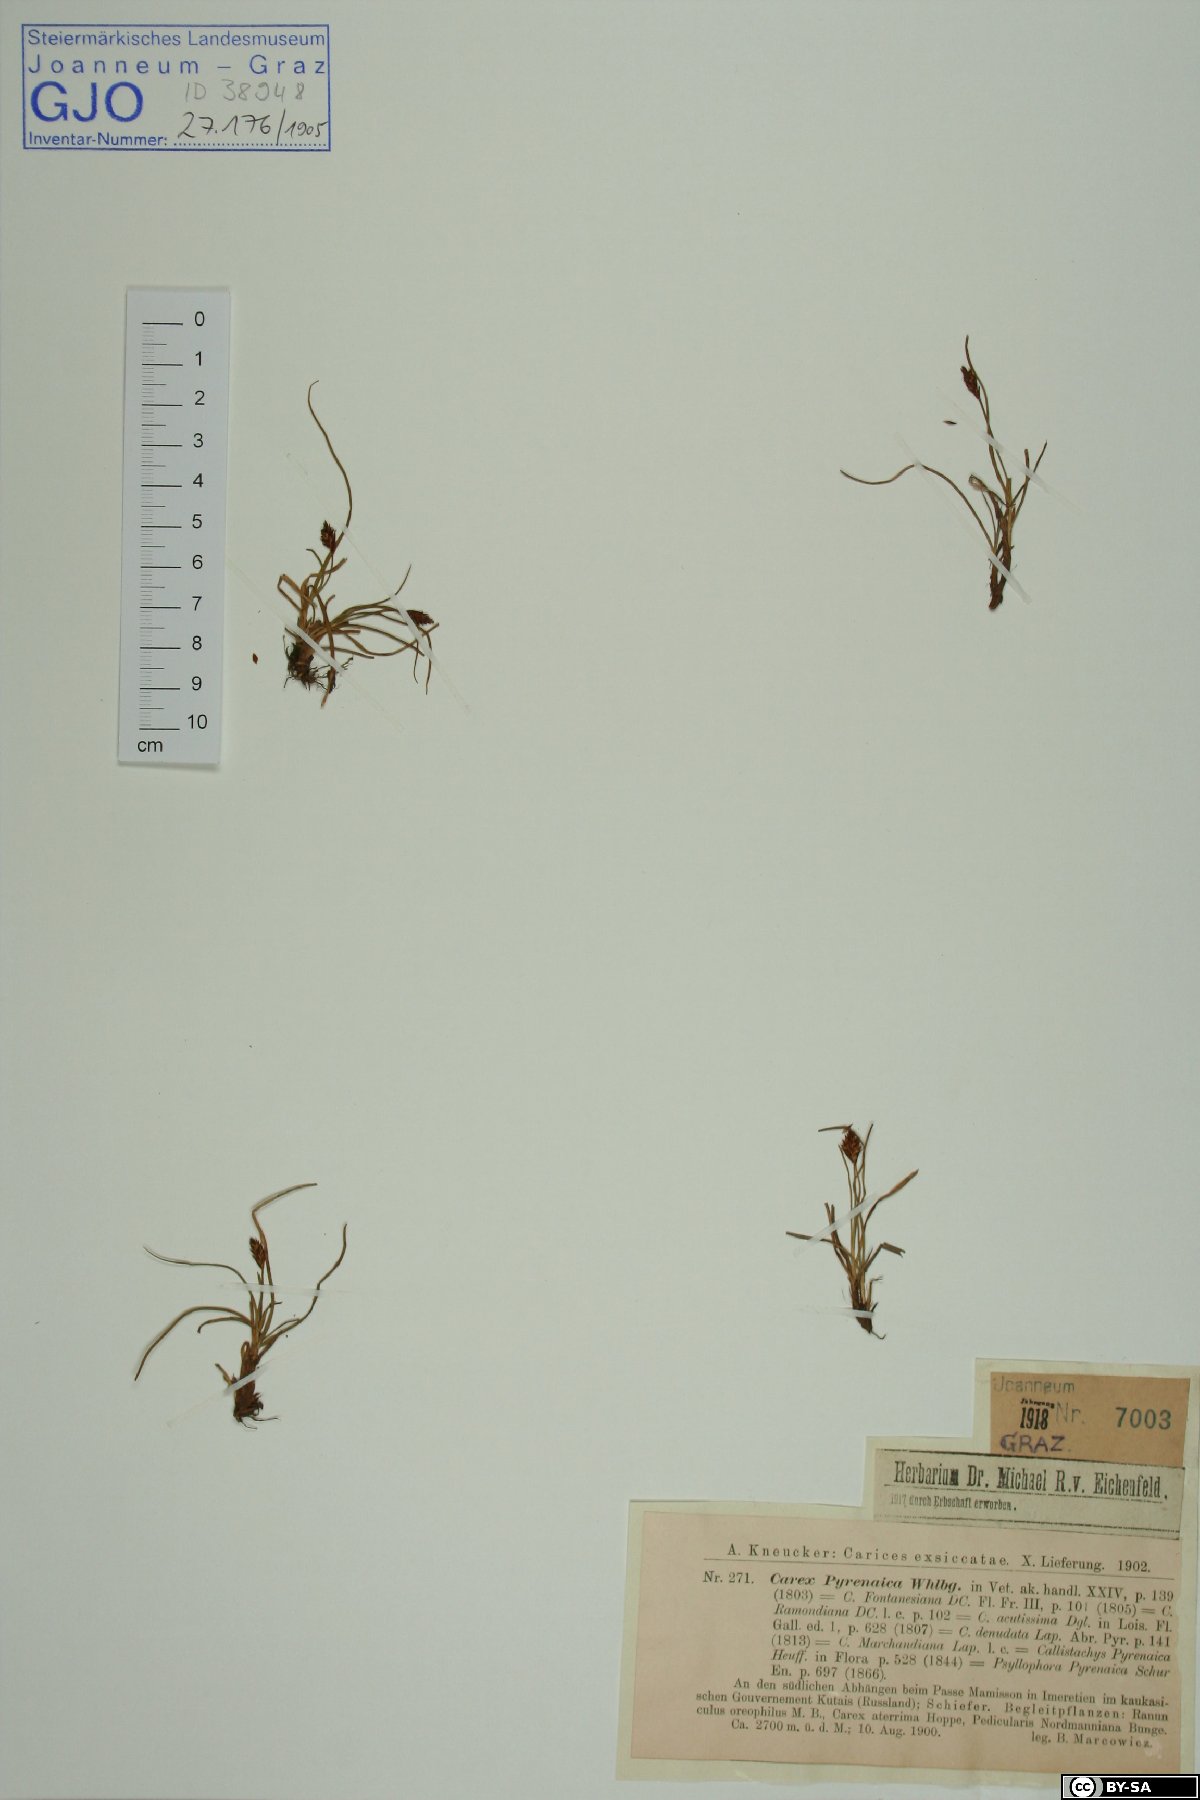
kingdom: Plantae
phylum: Tracheophyta
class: Liliopsida
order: Poales
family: Cyperaceae
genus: Carex
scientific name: Carex pyrenaica
